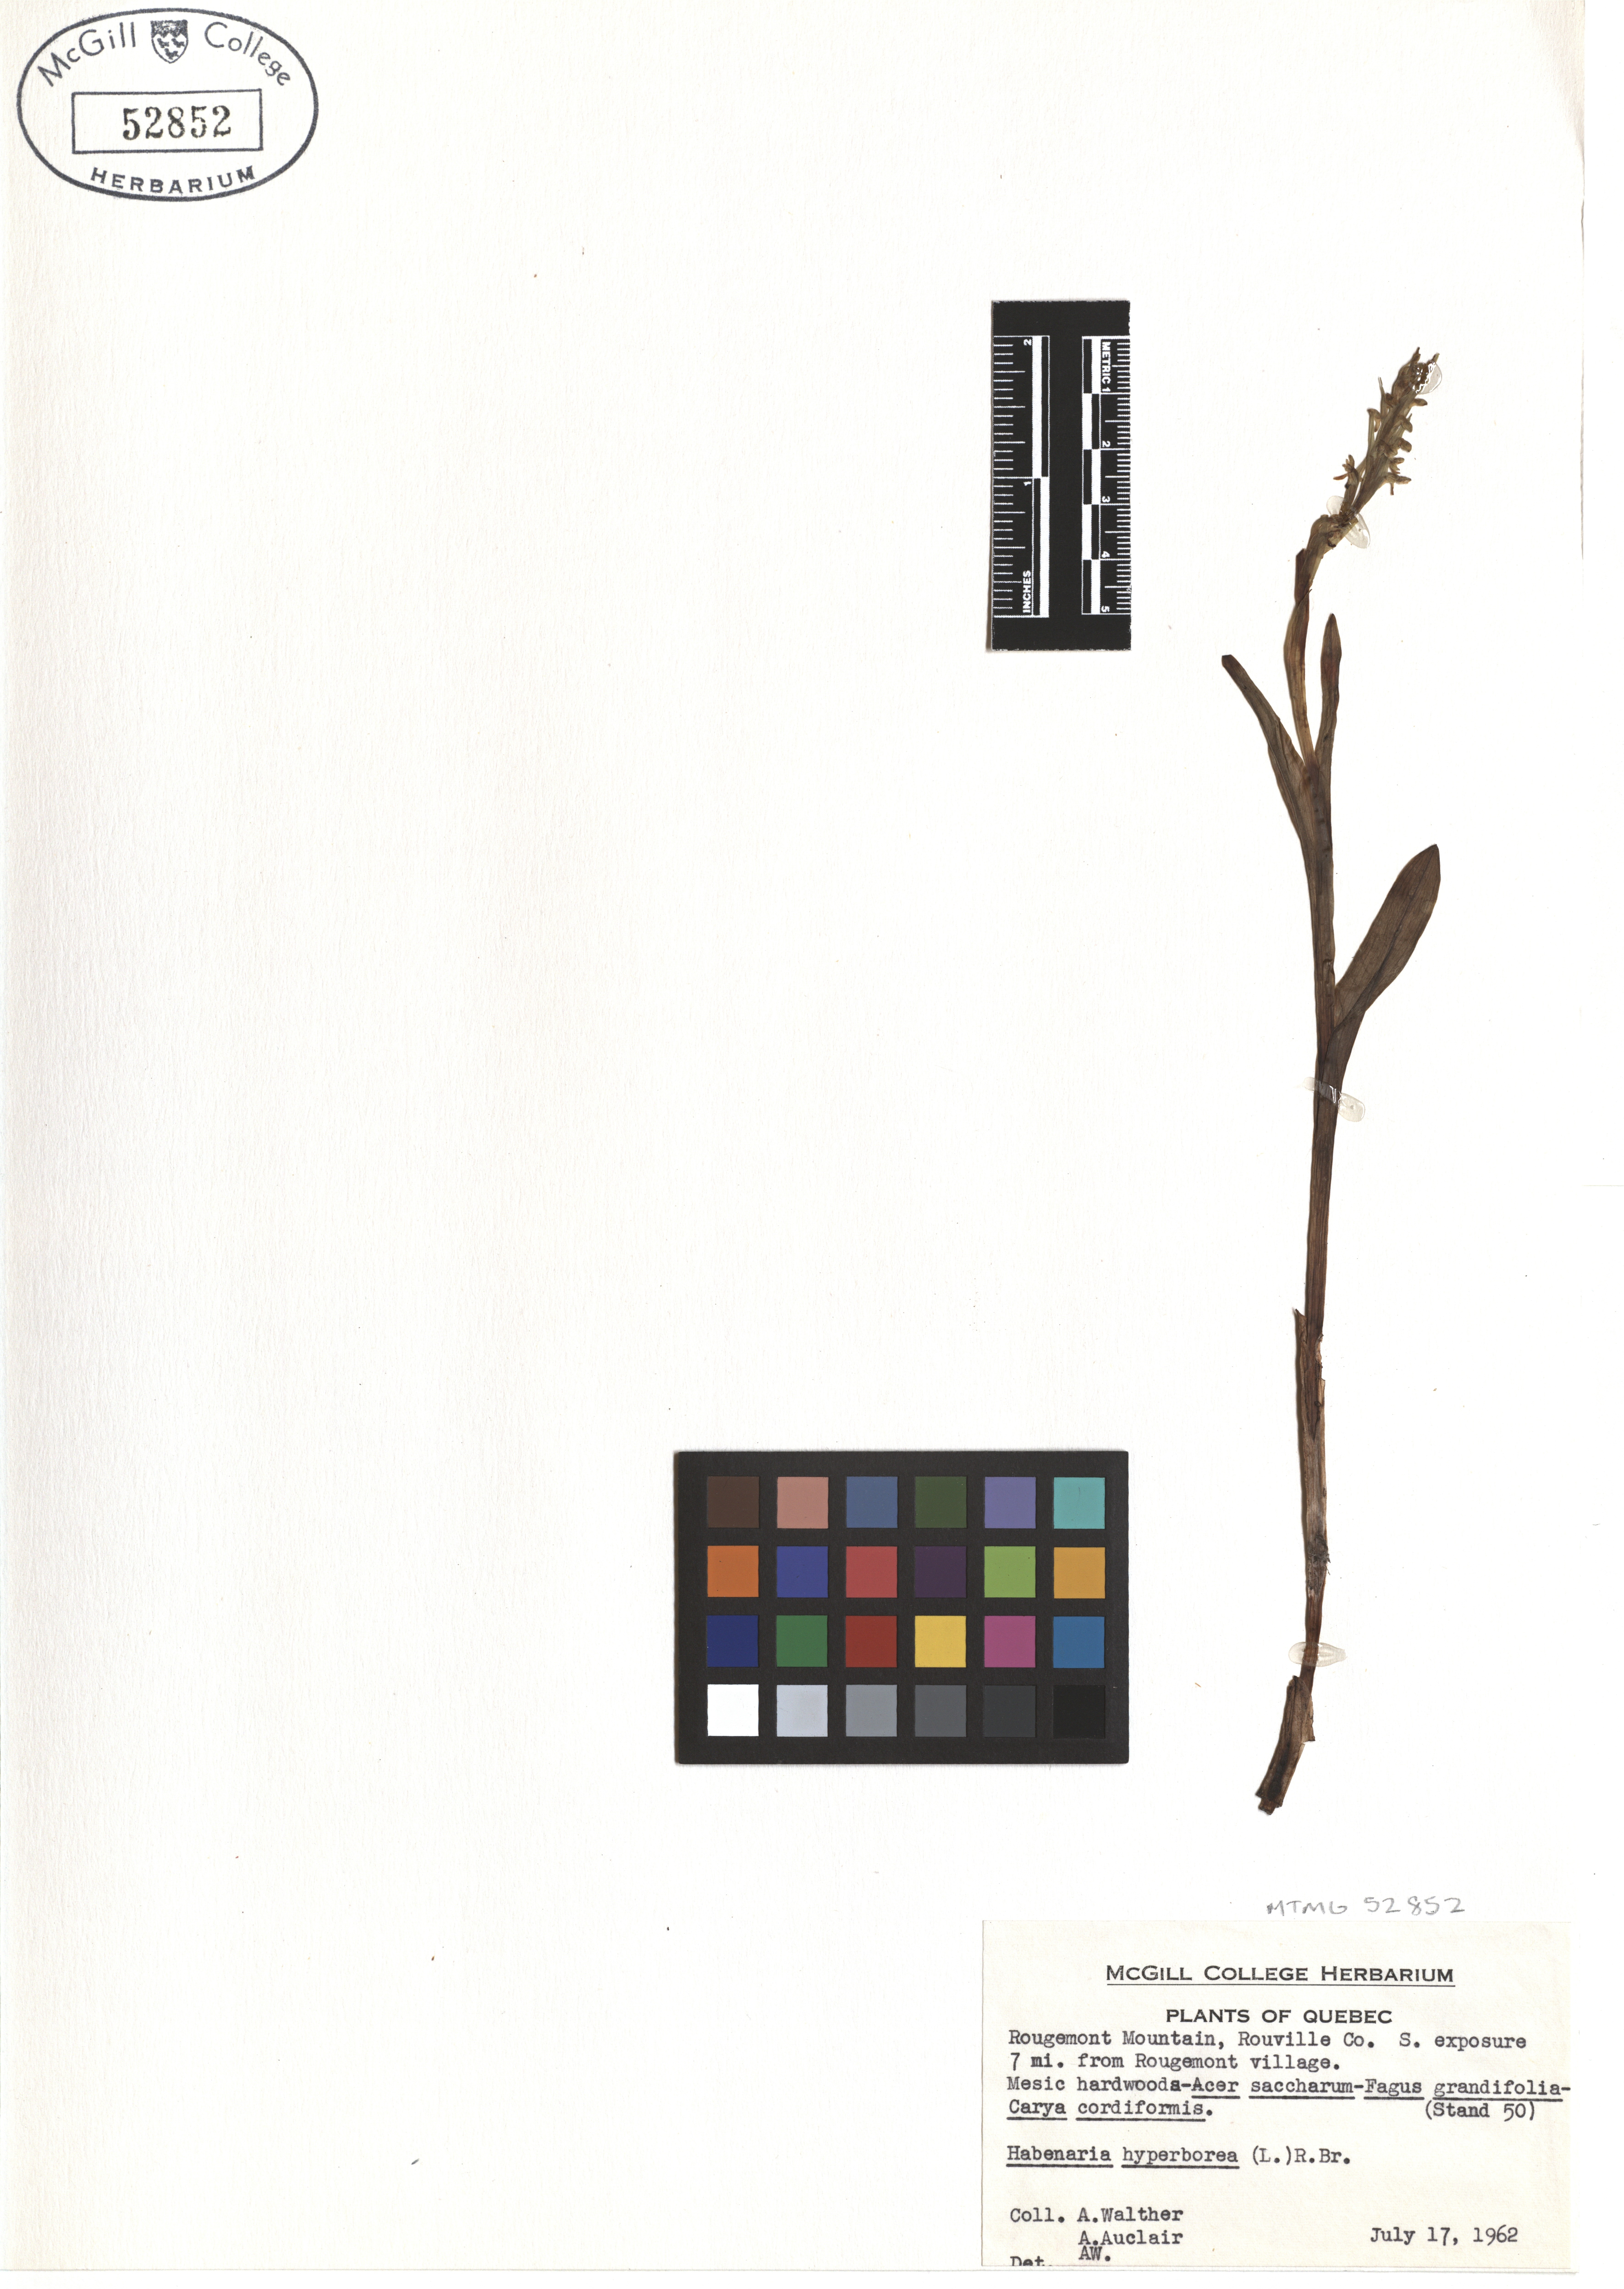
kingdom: Plantae
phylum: Tracheophyta
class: Liliopsida
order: Asparagales
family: Orchidaceae
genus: Platanthera
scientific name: Platanthera hyperborea
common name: Northern green orchid
